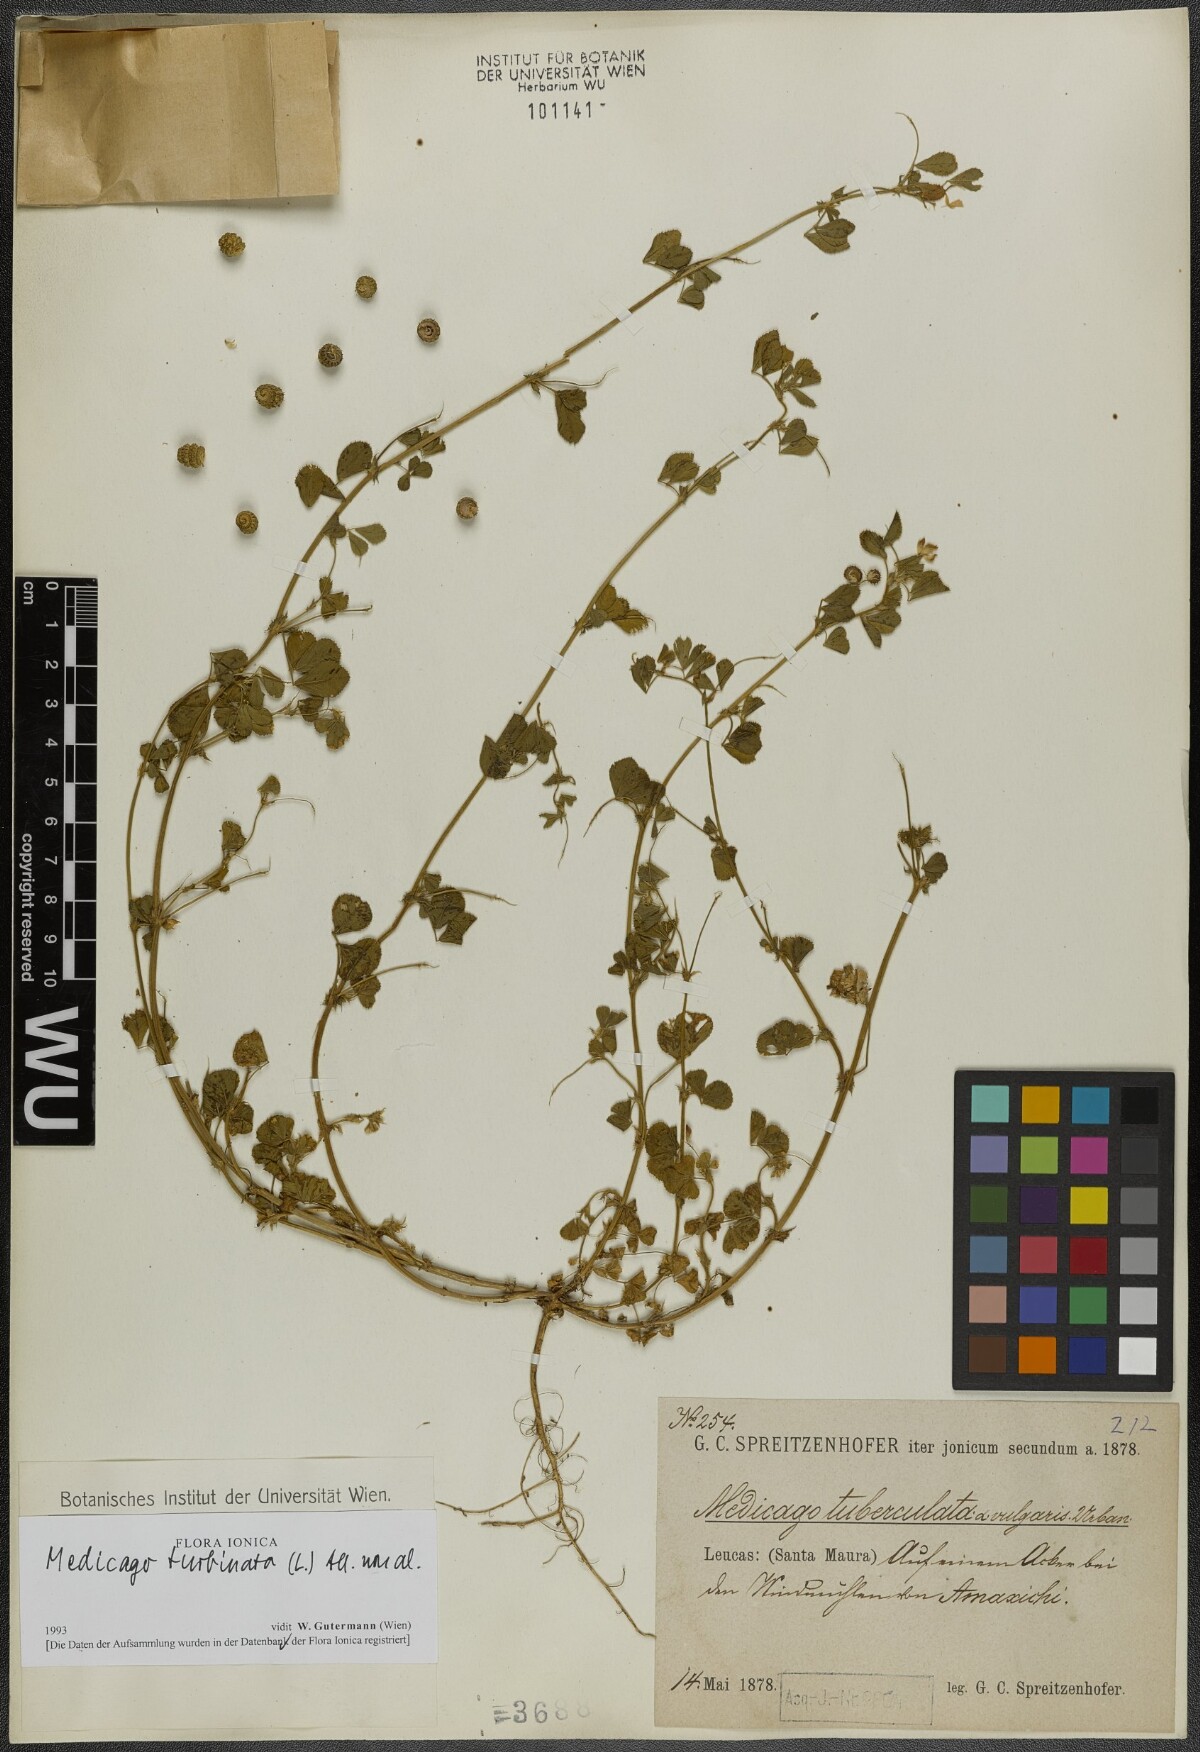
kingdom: Plantae
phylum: Tracheophyta
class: Magnoliopsida
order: Fabales
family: Fabaceae
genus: Medicago
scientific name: Medicago turbinata
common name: Southern medick
